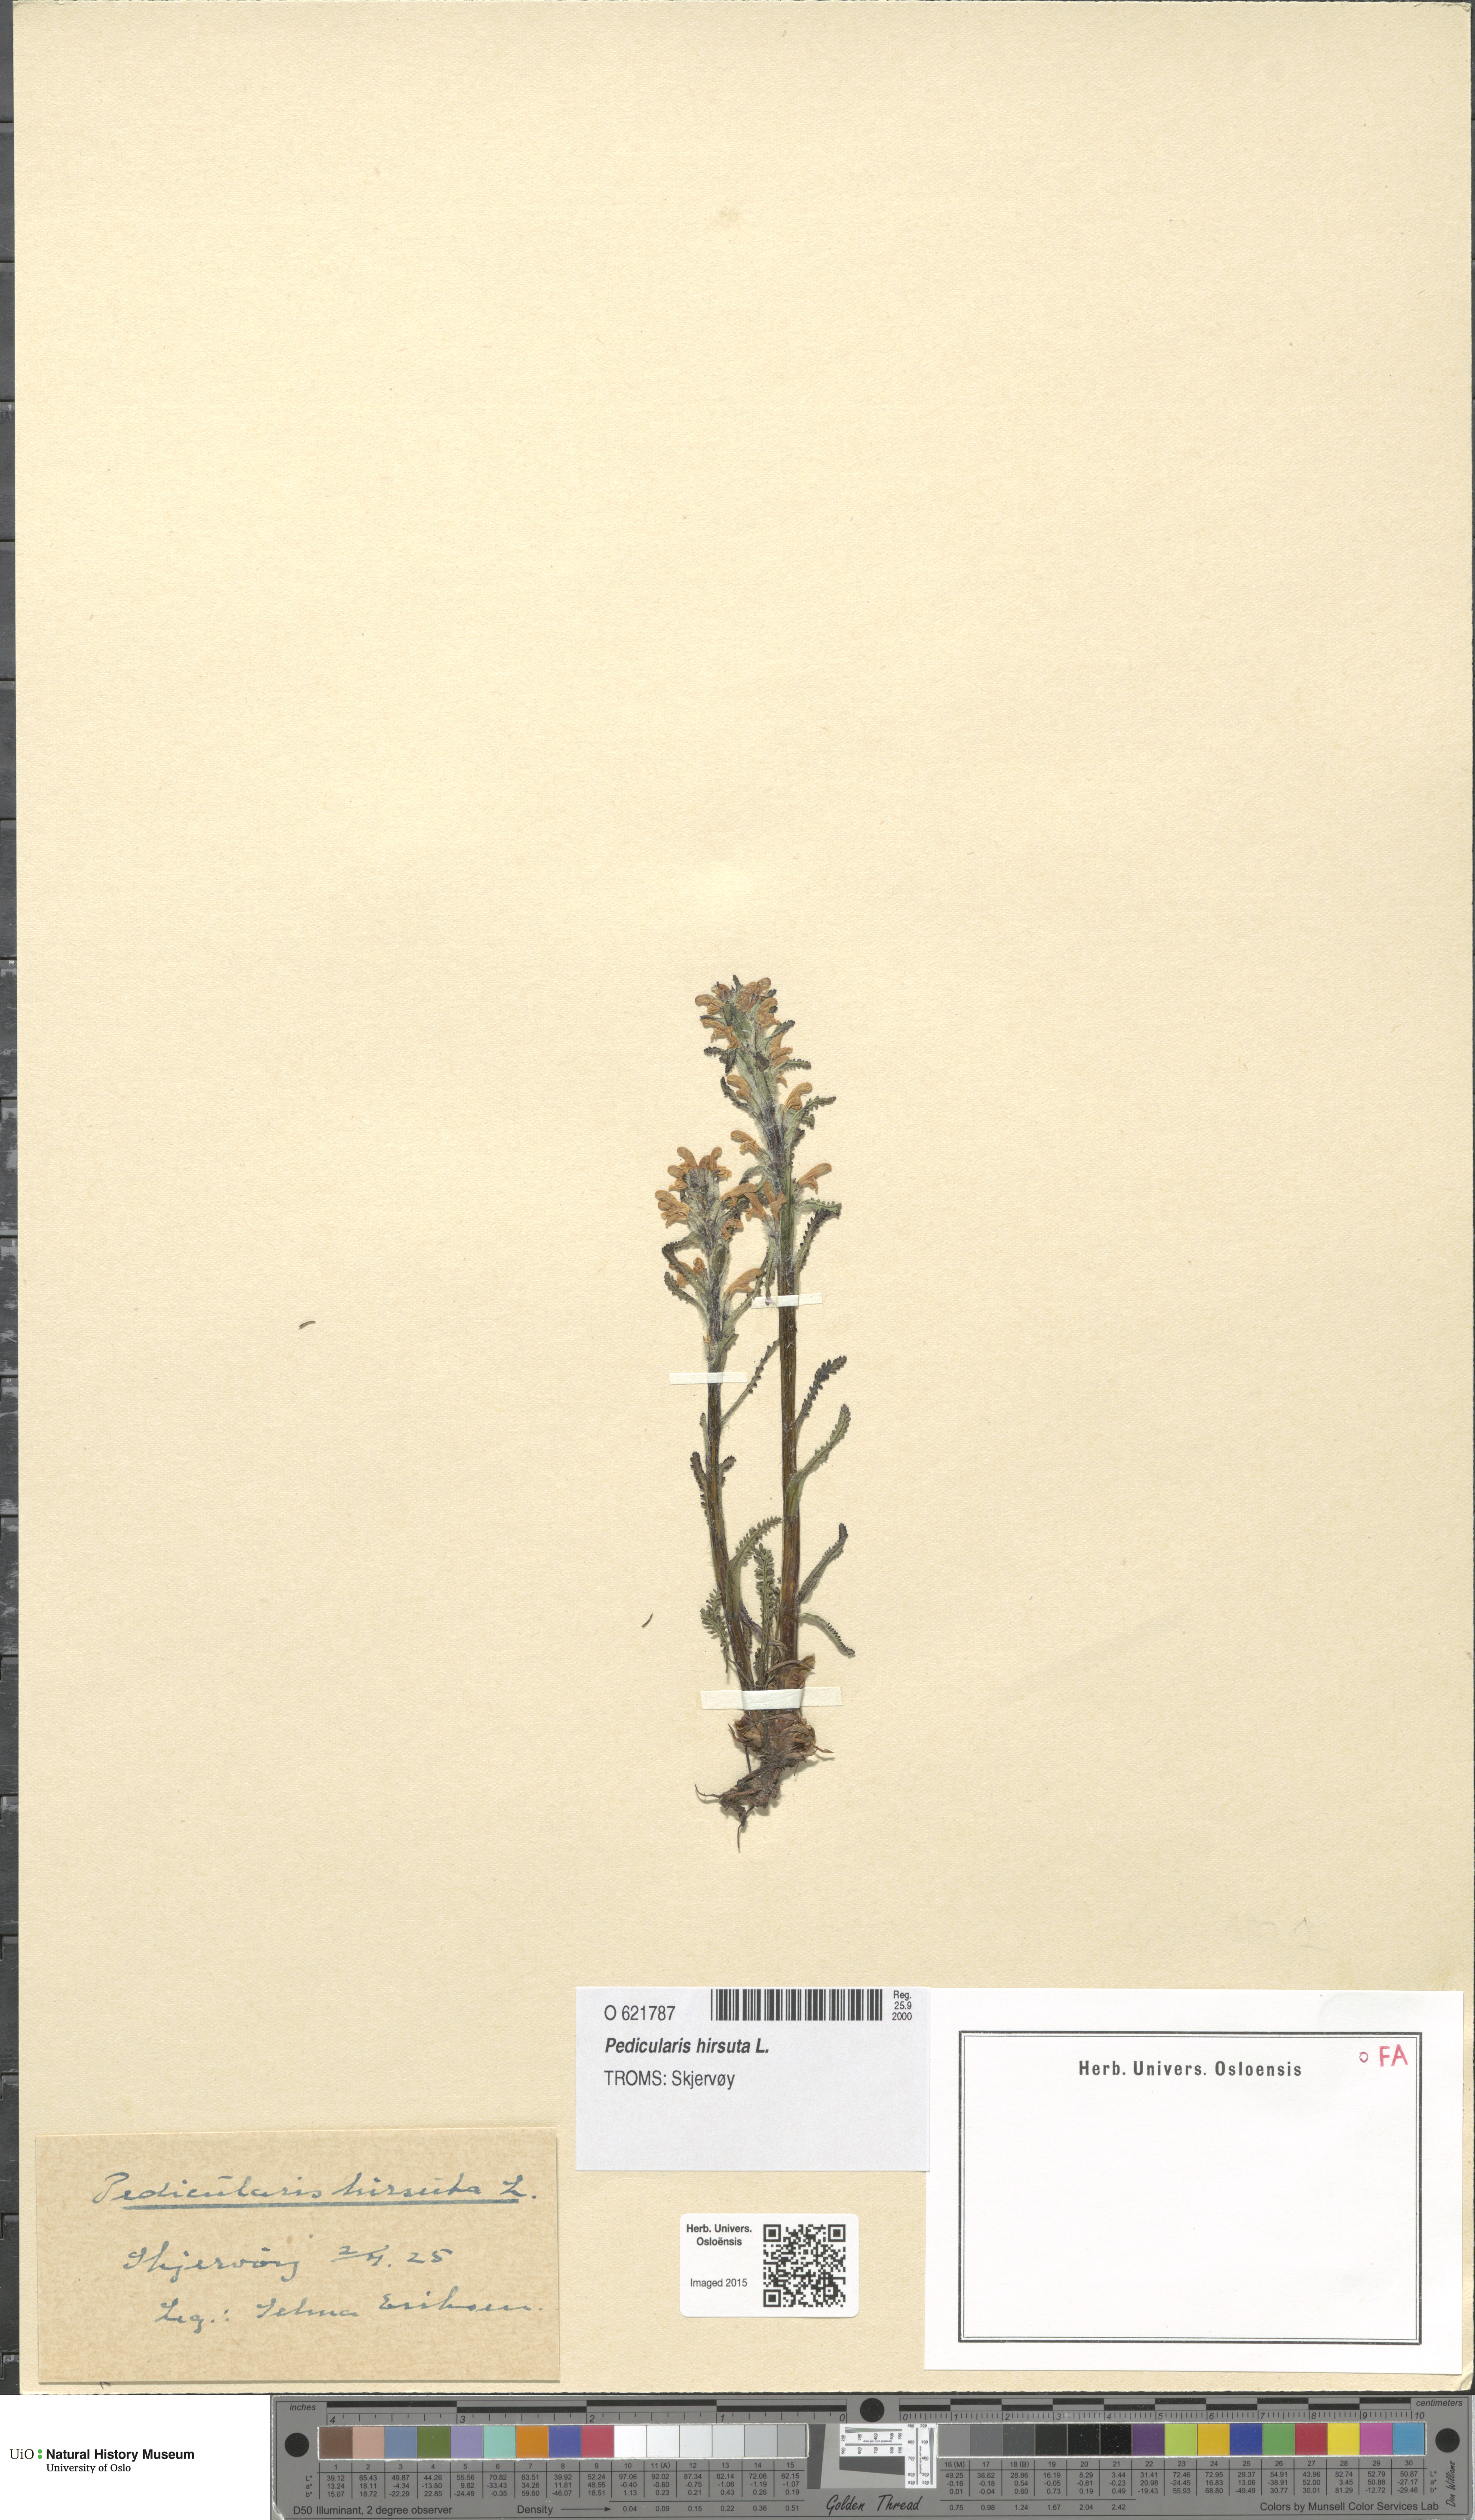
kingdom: Plantae
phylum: Tracheophyta
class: Magnoliopsida
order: Lamiales
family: Orobanchaceae
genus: Pedicularis
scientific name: Pedicularis hirsuta
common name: Hairy lousewort
